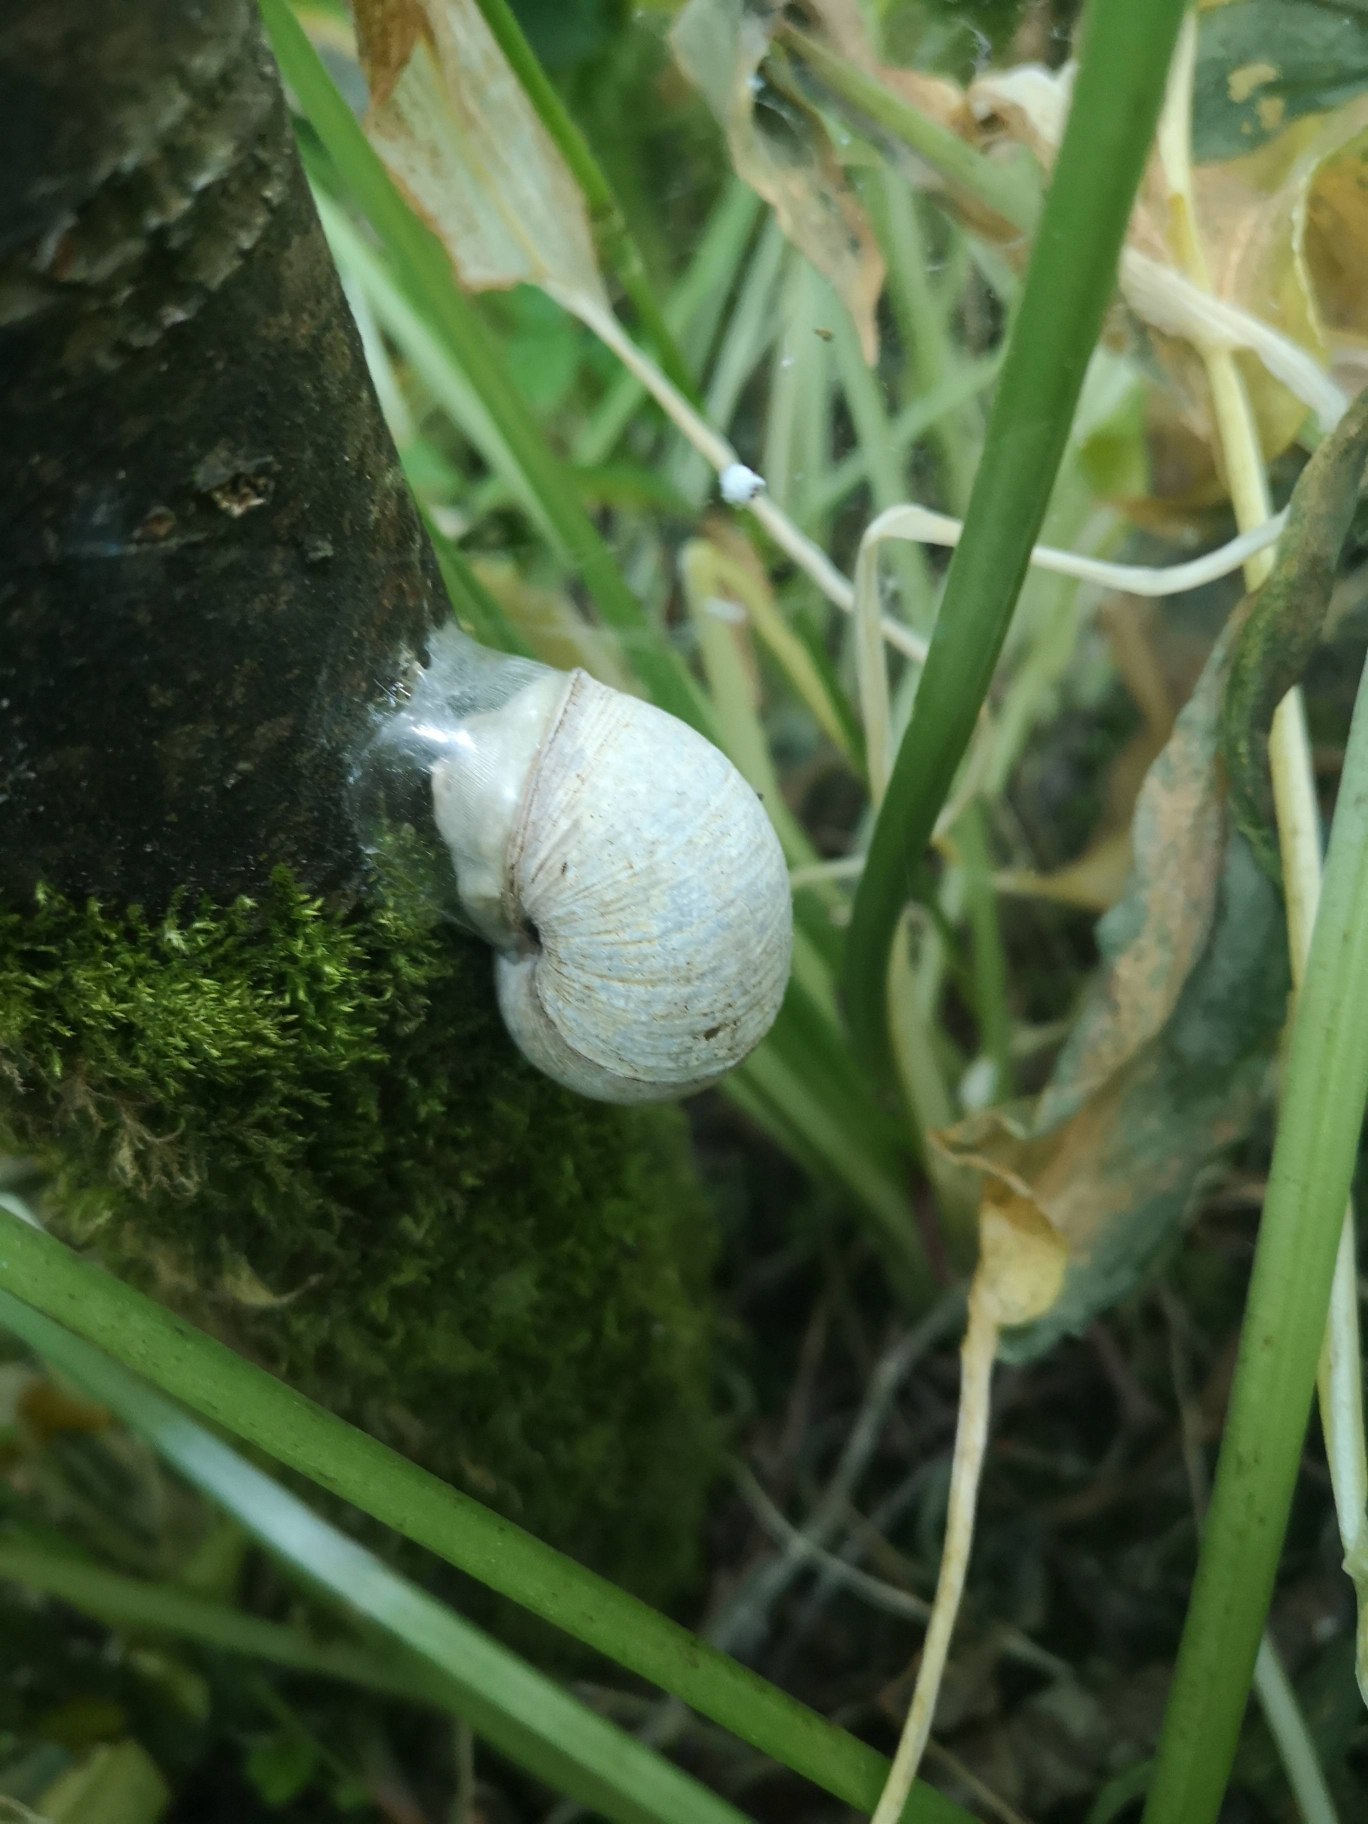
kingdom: Animalia
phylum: Mollusca
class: Gastropoda
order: Stylommatophora
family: Helicidae
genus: Helix
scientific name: Helix pomatia
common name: Vinbjergsnegl
